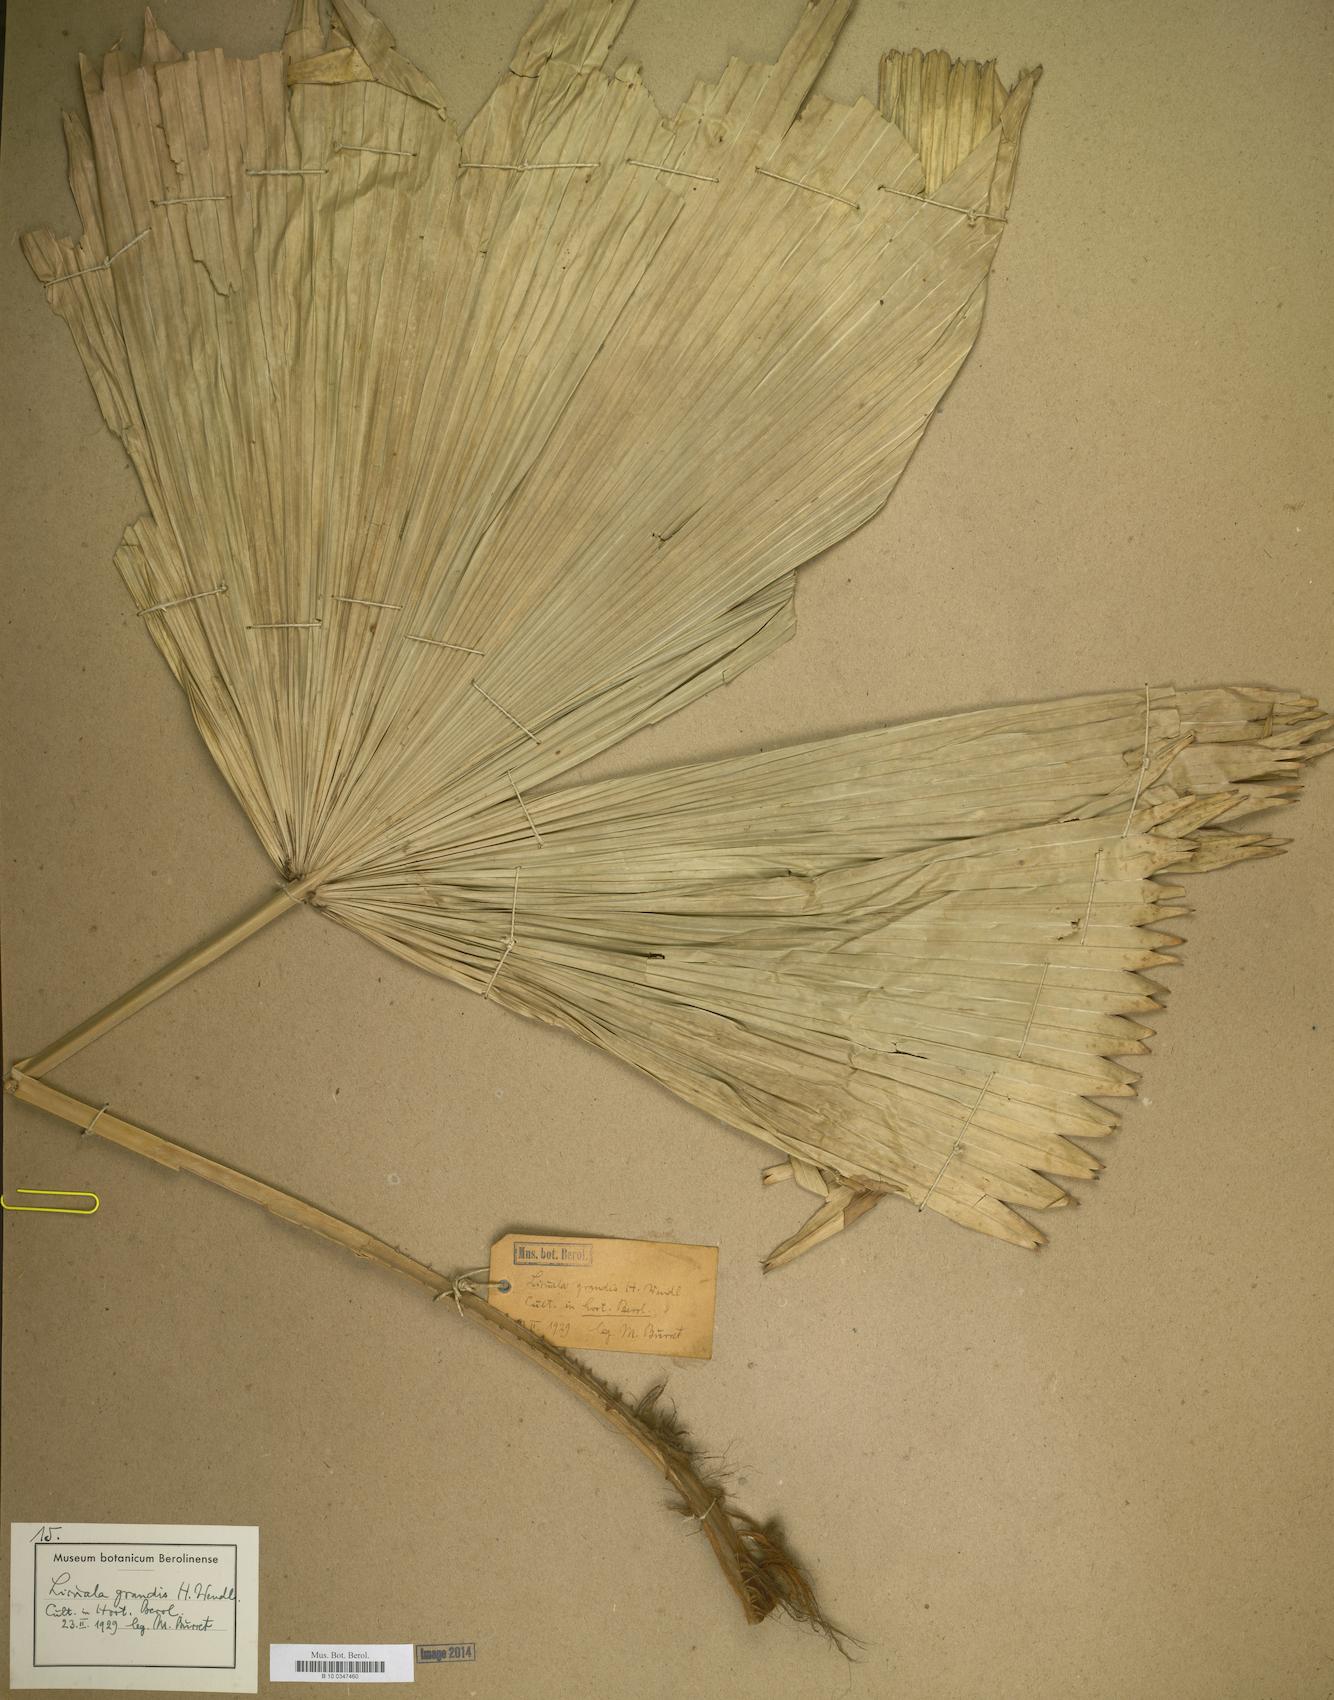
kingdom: Plantae
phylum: Tracheophyta
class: Liliopsida
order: Arecales
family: Arecaceae
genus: Licuala
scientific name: Licuala grandis
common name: Ruffled fan palm
